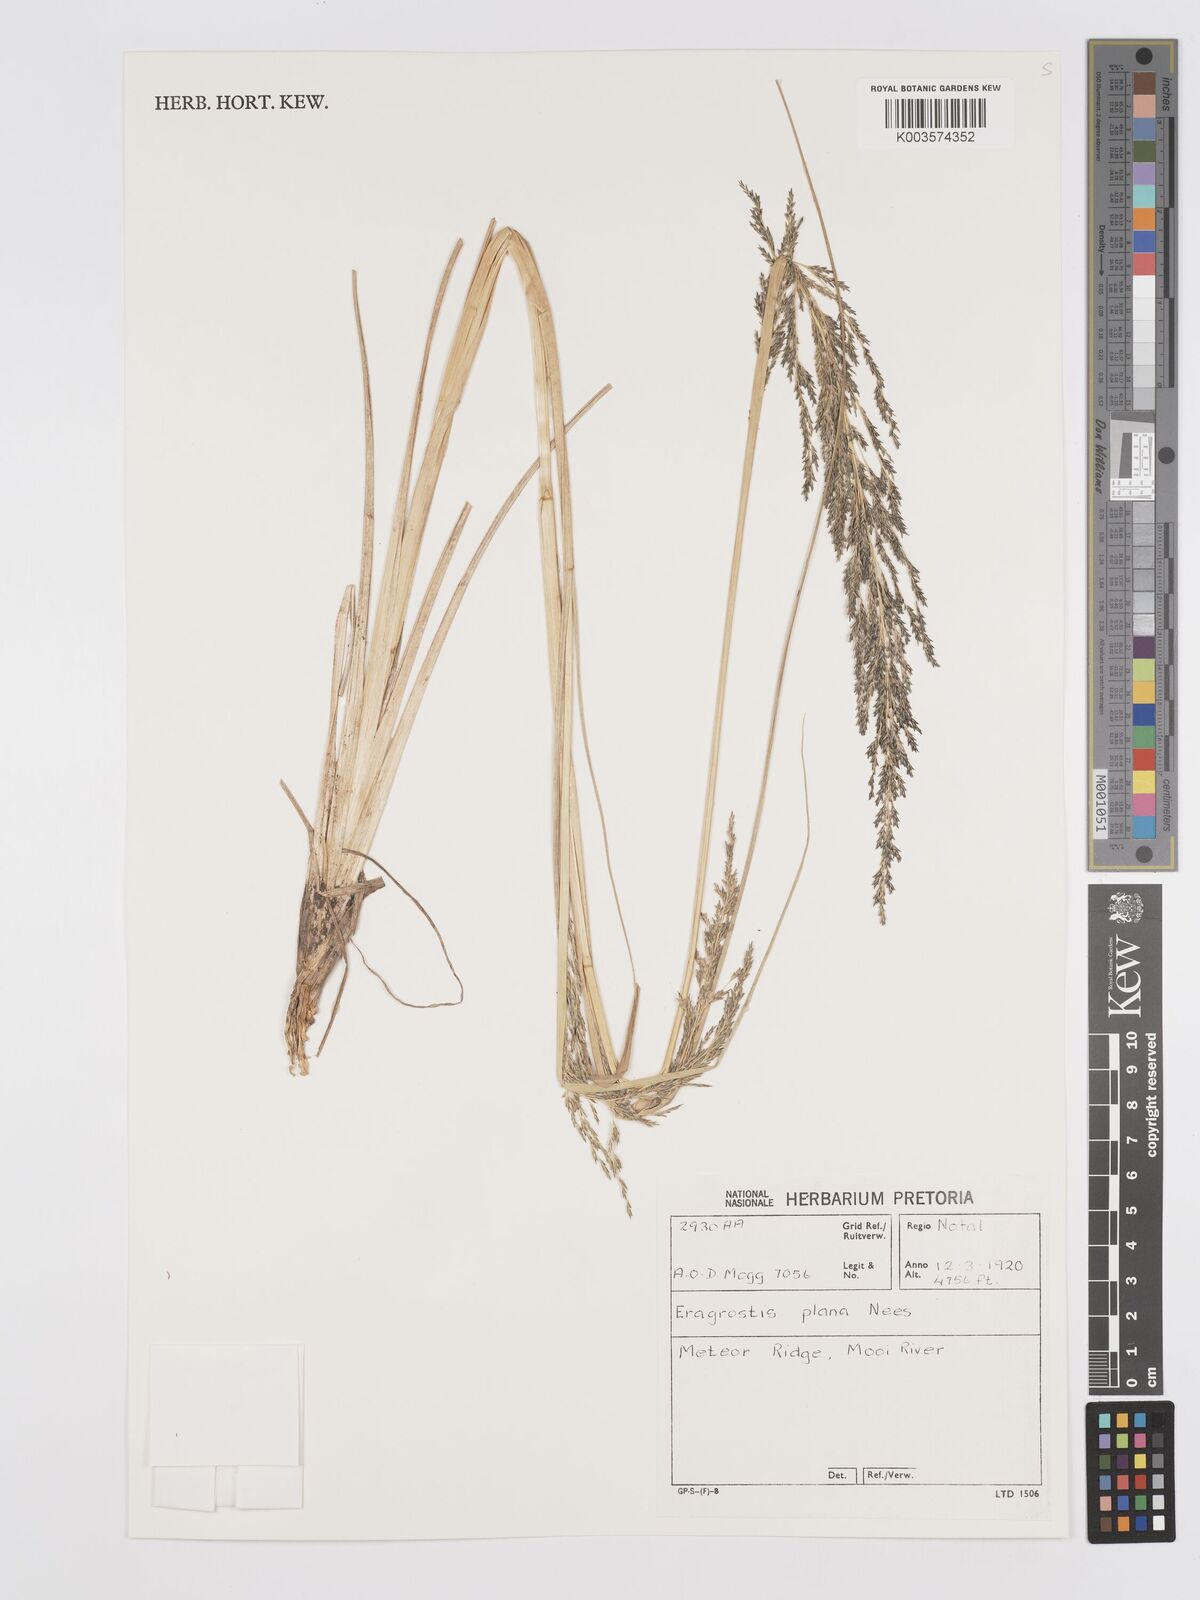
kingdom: Plantae
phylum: Tracheophyta
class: Liliopsida
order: Poales
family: Poaceae
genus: Eragrostis
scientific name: Eragrostis plana
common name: South african lovegrass
